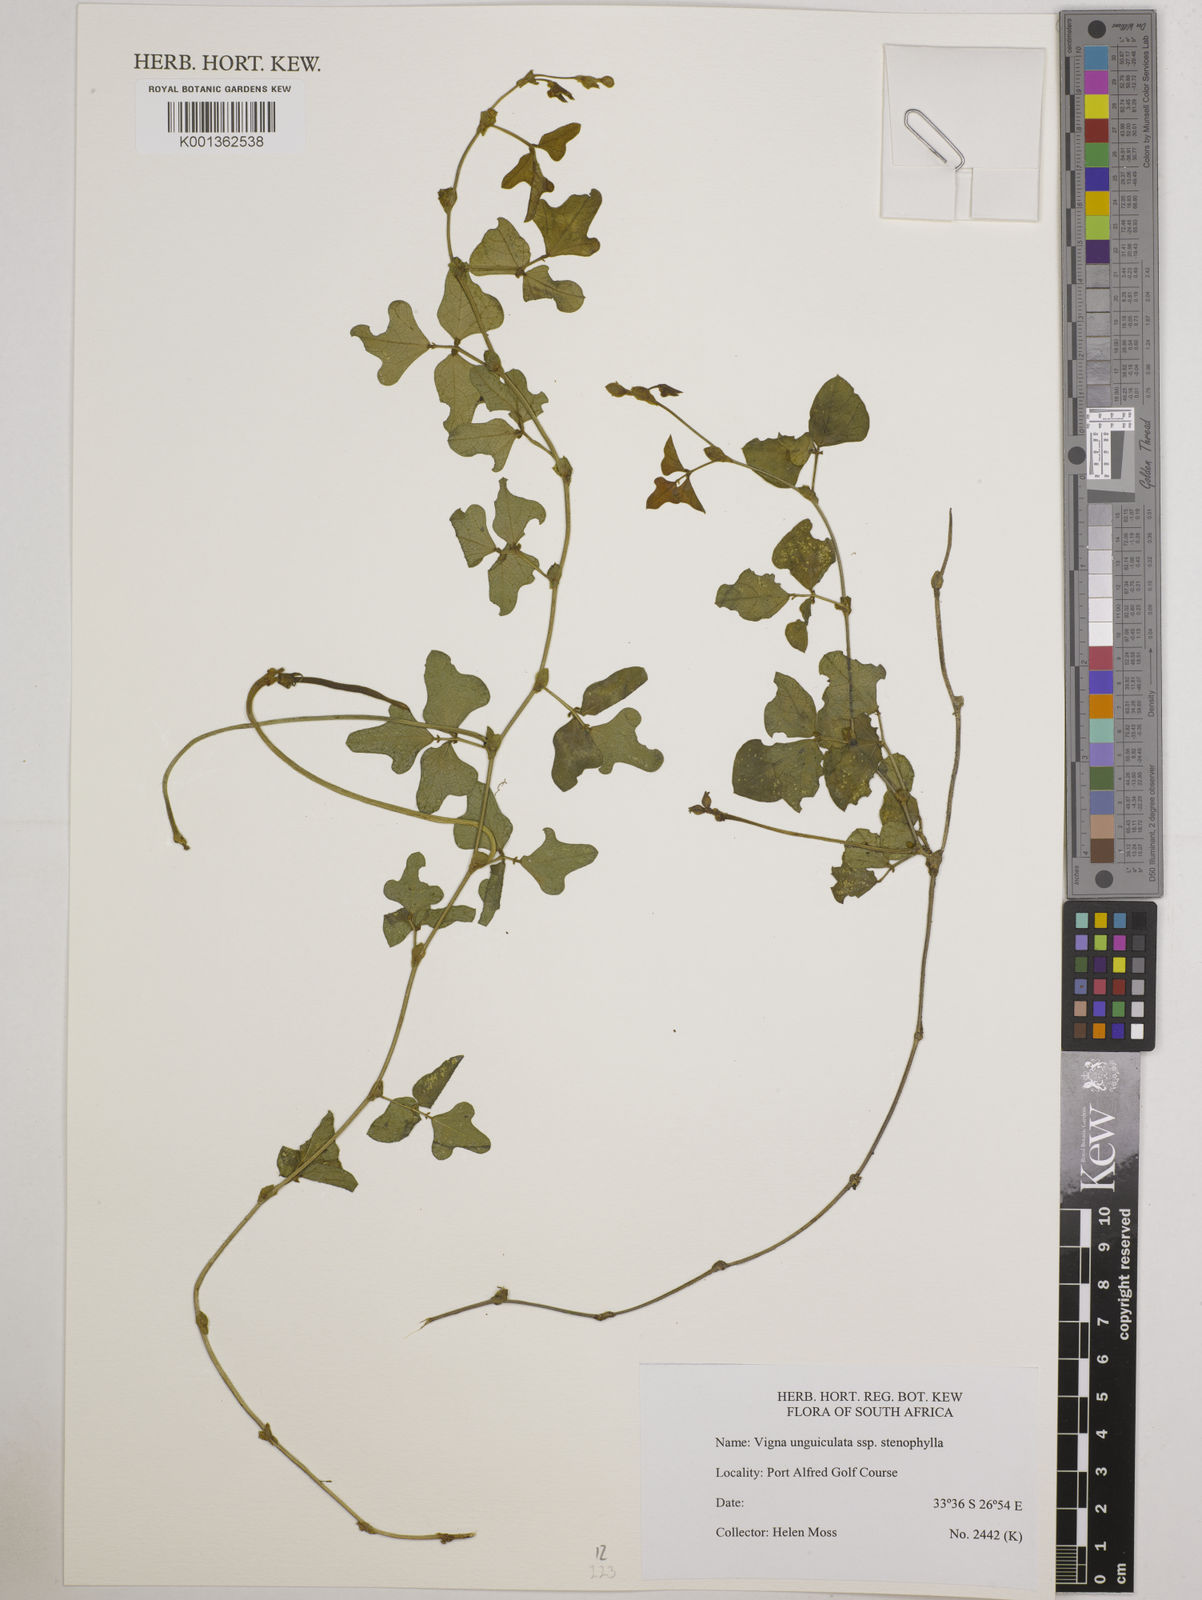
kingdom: Plantae
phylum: Tracheophyta
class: Magnoliopsida
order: Fabales
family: Fabaceae
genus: Vigna
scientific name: Vigna
